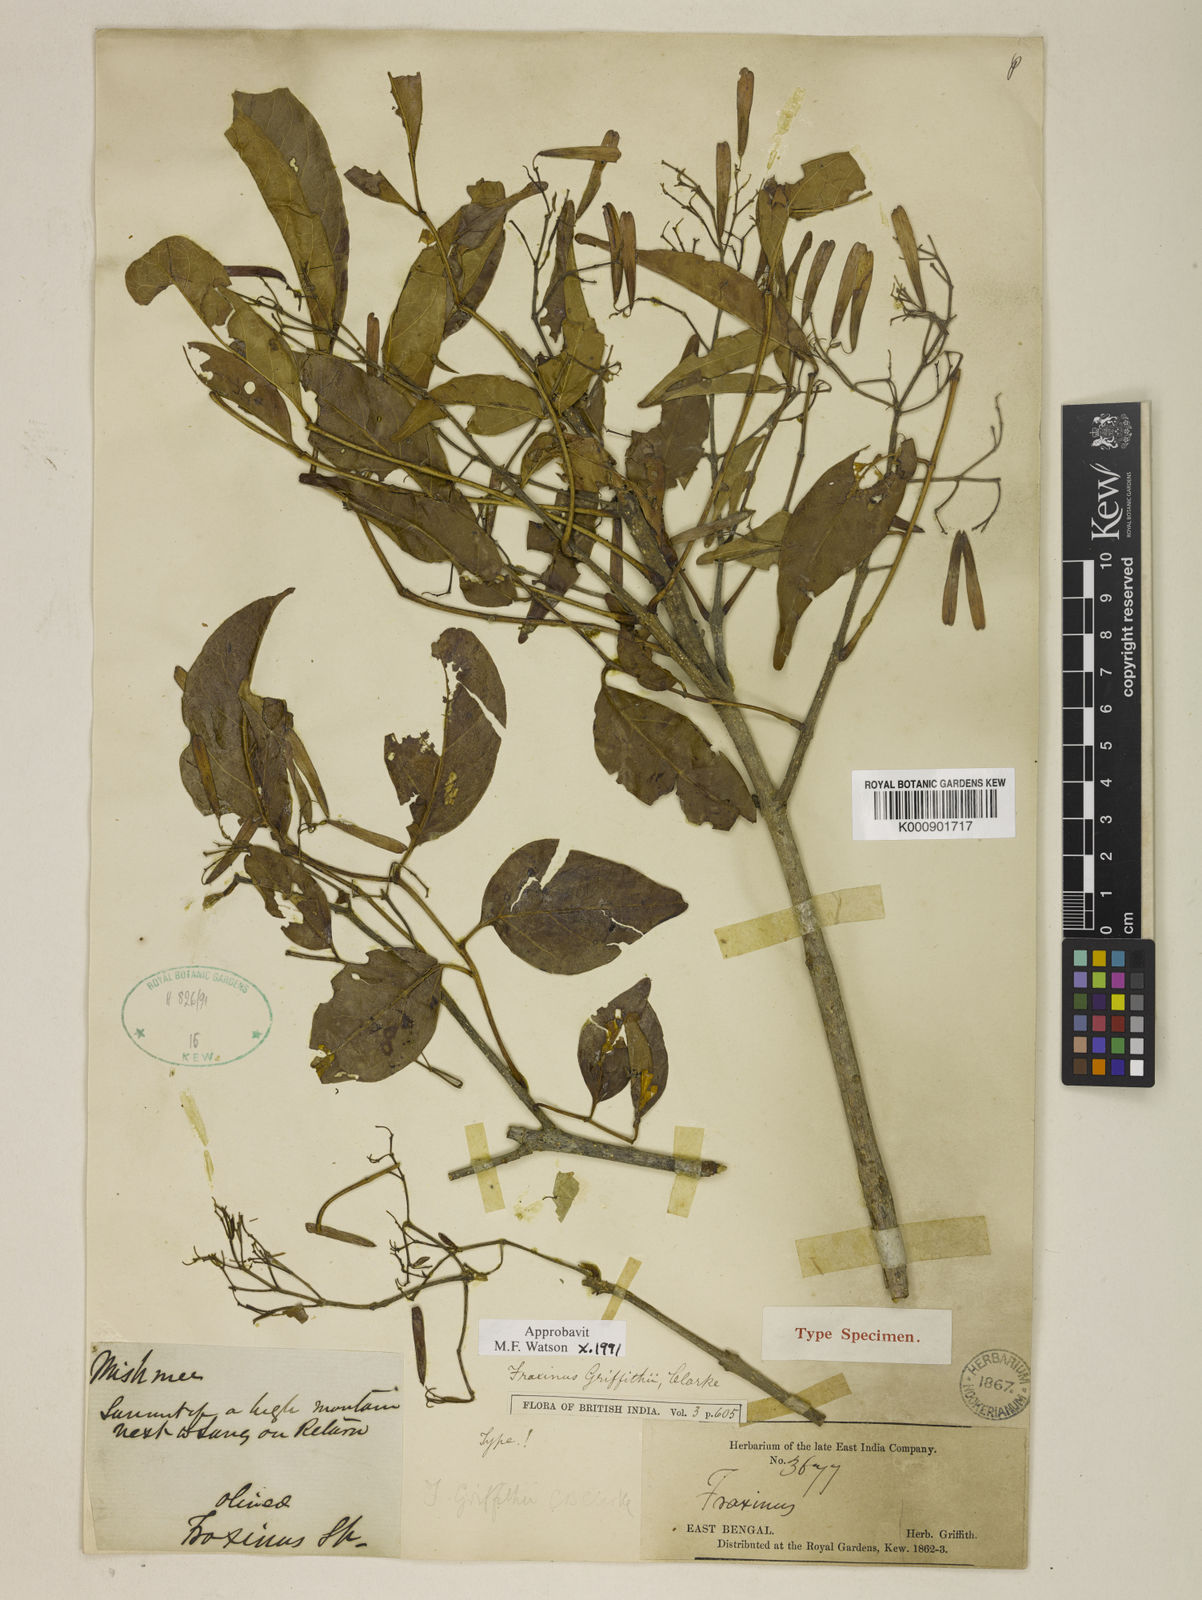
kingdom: Plantae
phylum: Tracheophyta
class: Magnoliopsida
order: Lamiales
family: Oleaceae
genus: Fraxinus
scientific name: Fraxinus griffithii
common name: Himalayan ash
